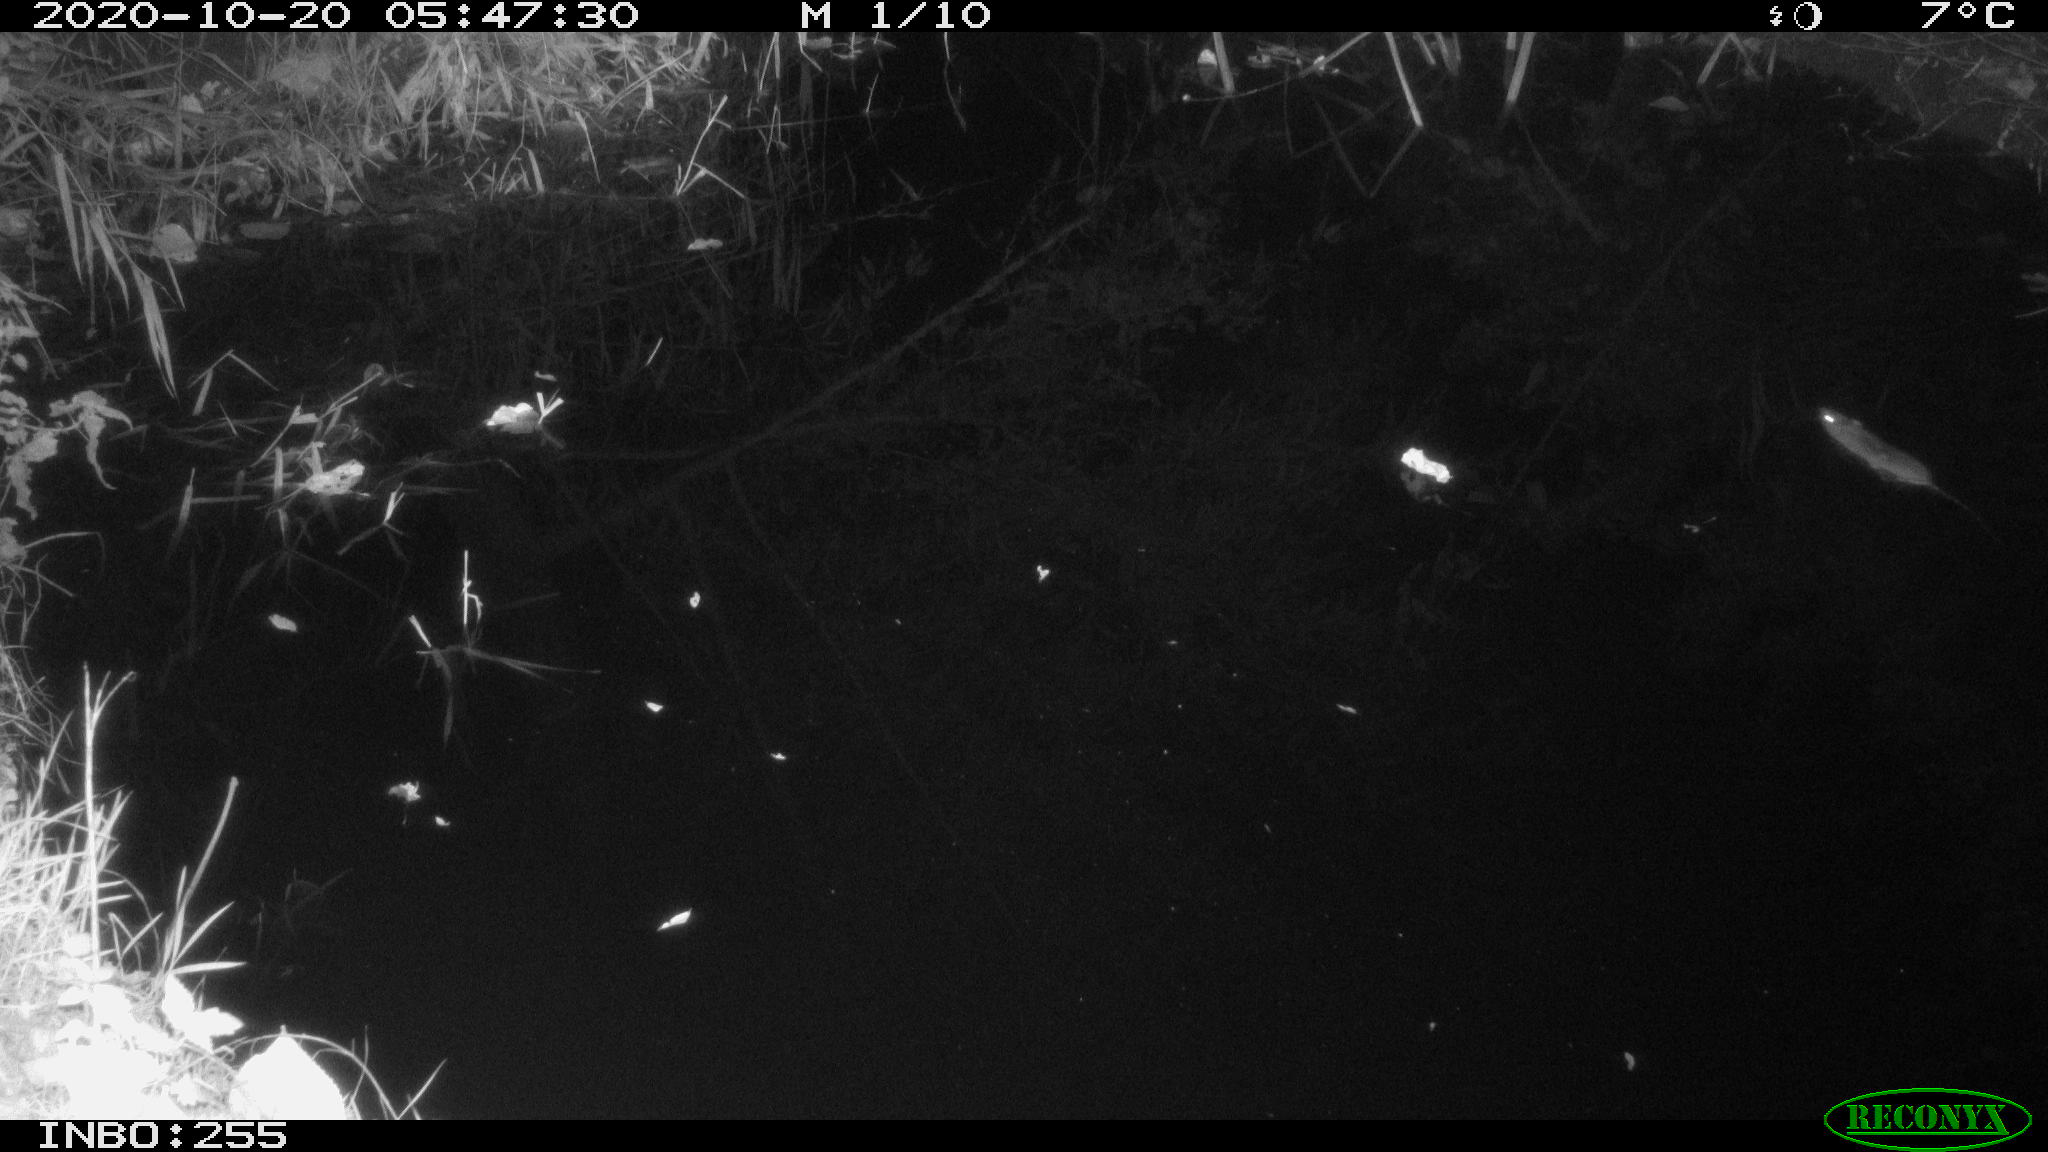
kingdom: Animalia
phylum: Chordata
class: Mammalia
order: Rodentia
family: Muridae
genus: Rattus
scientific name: Rattus norvegicus
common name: Brown rat
